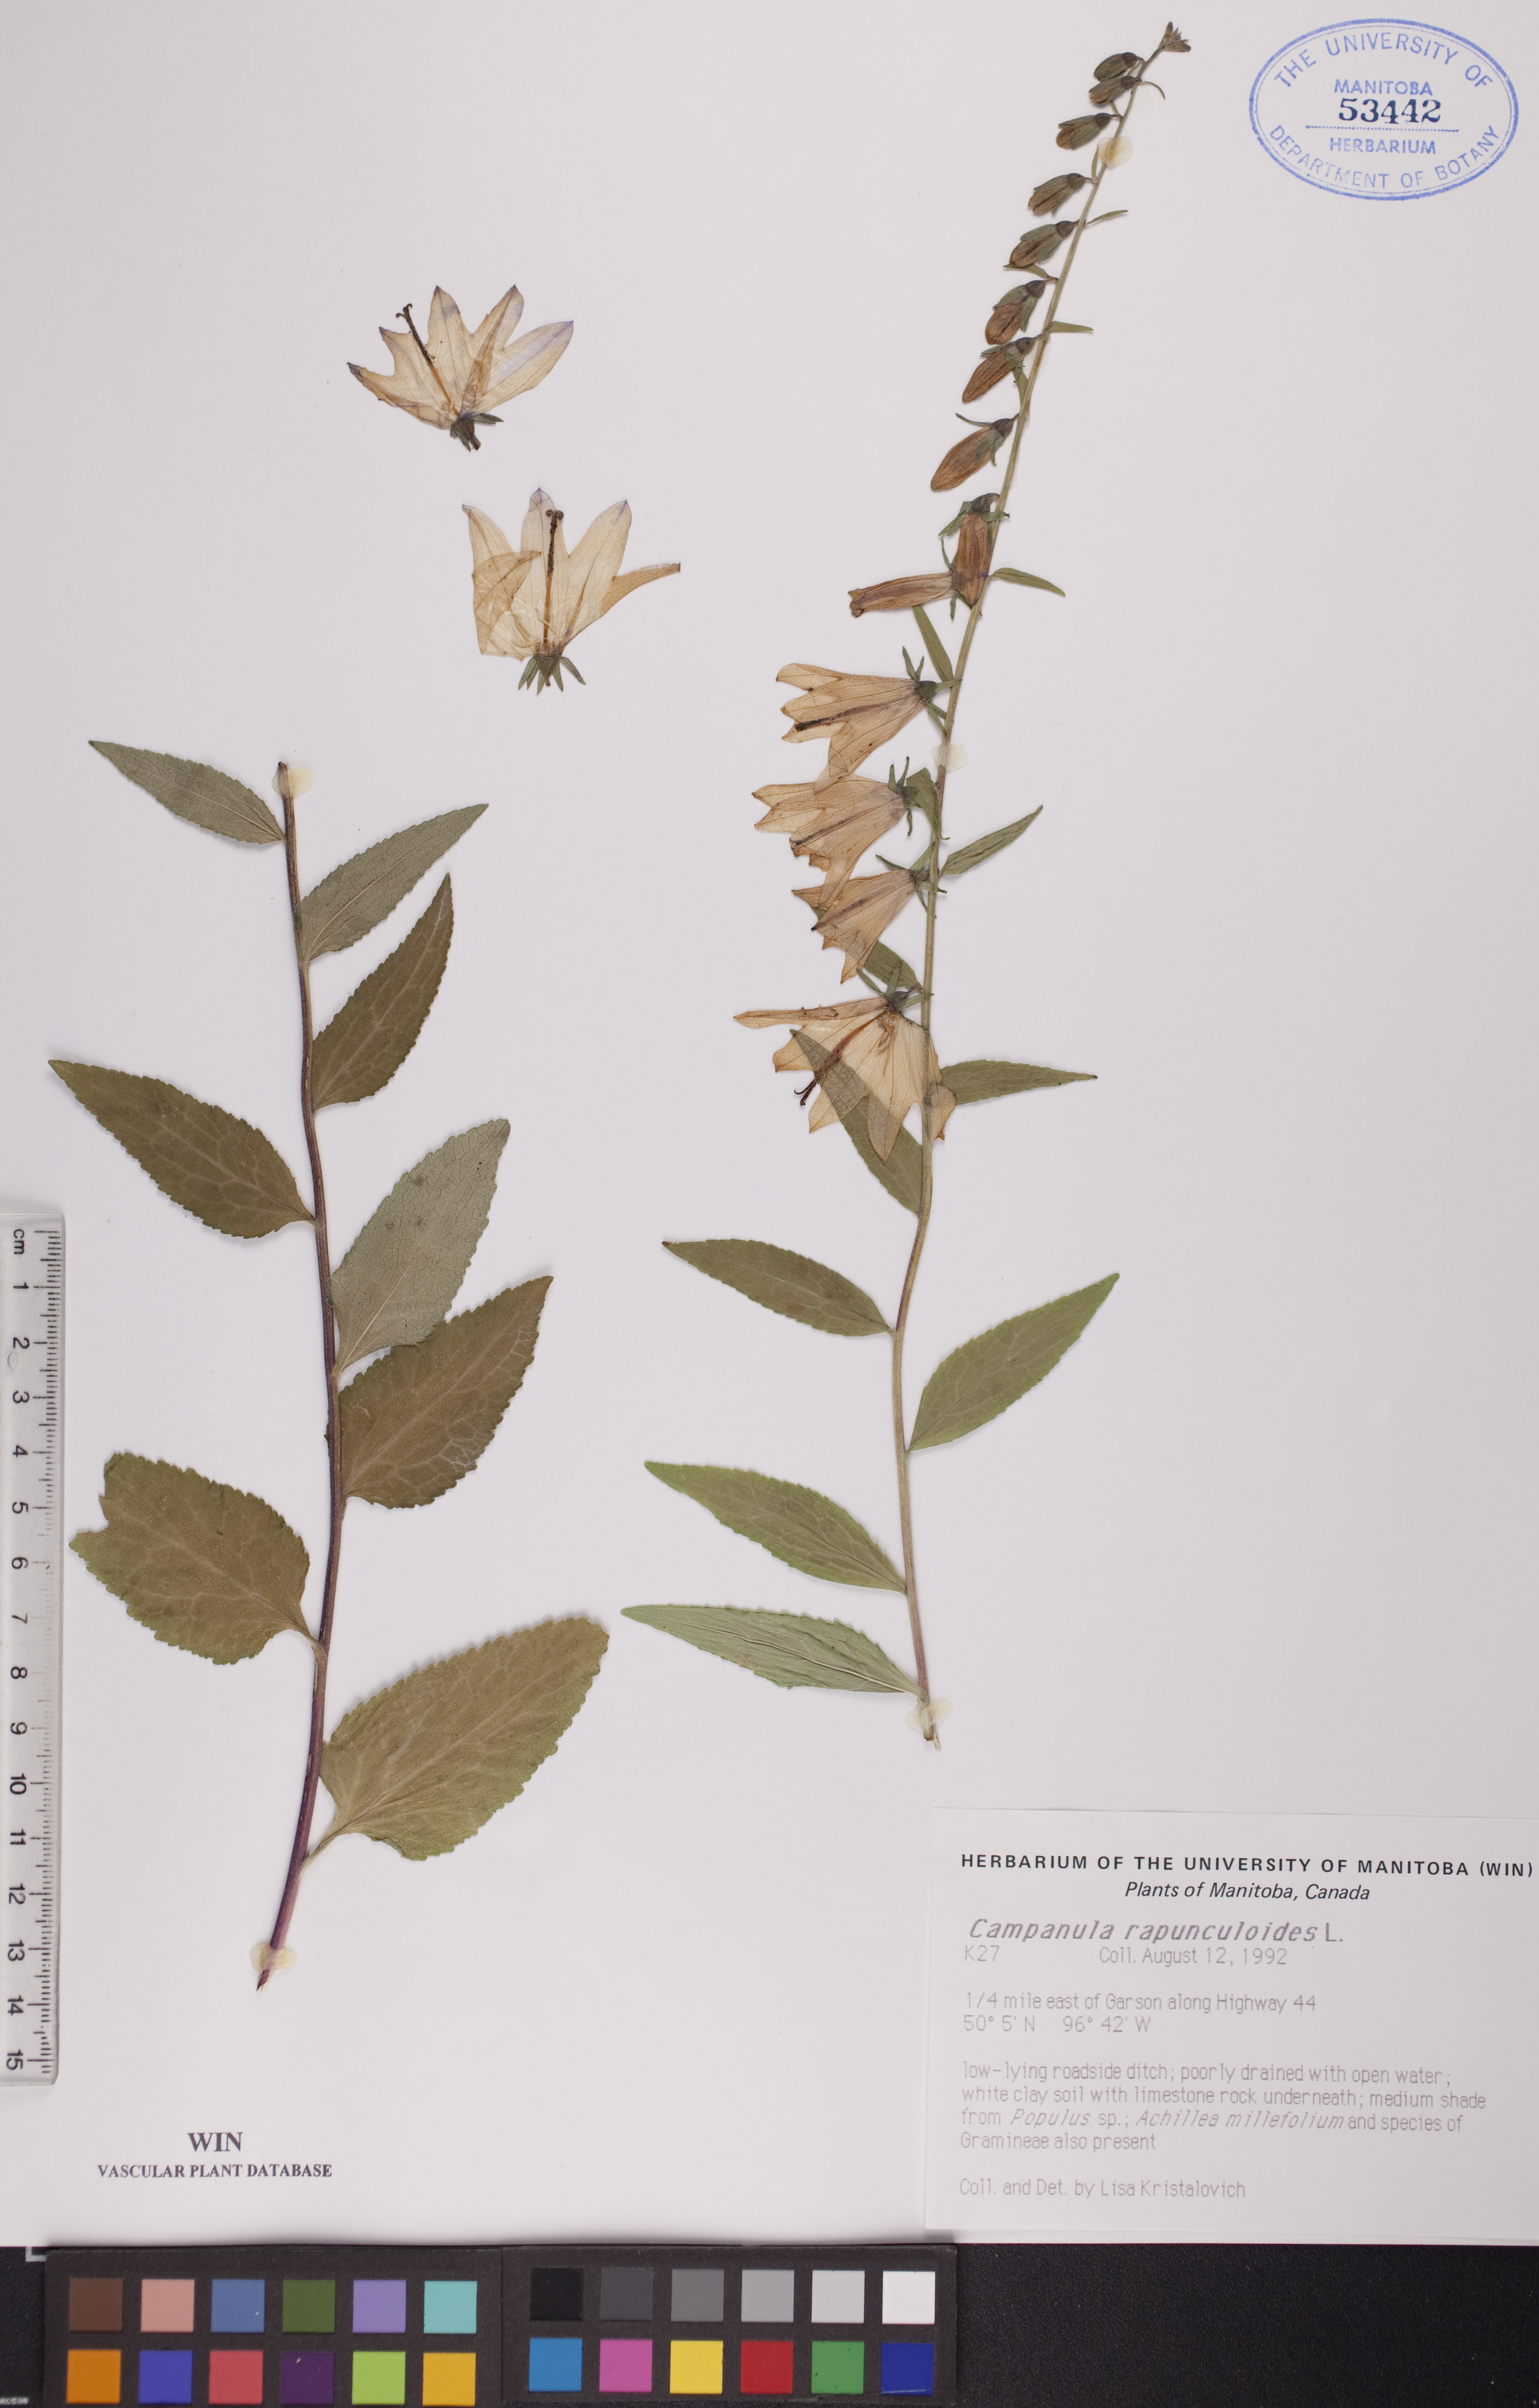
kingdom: Plantae
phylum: Tracheophyta
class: Magnoliopsida
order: Asterales
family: Campanulaceae
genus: Campanula
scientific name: Campanula rapunculoides
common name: Creeping bellflower
